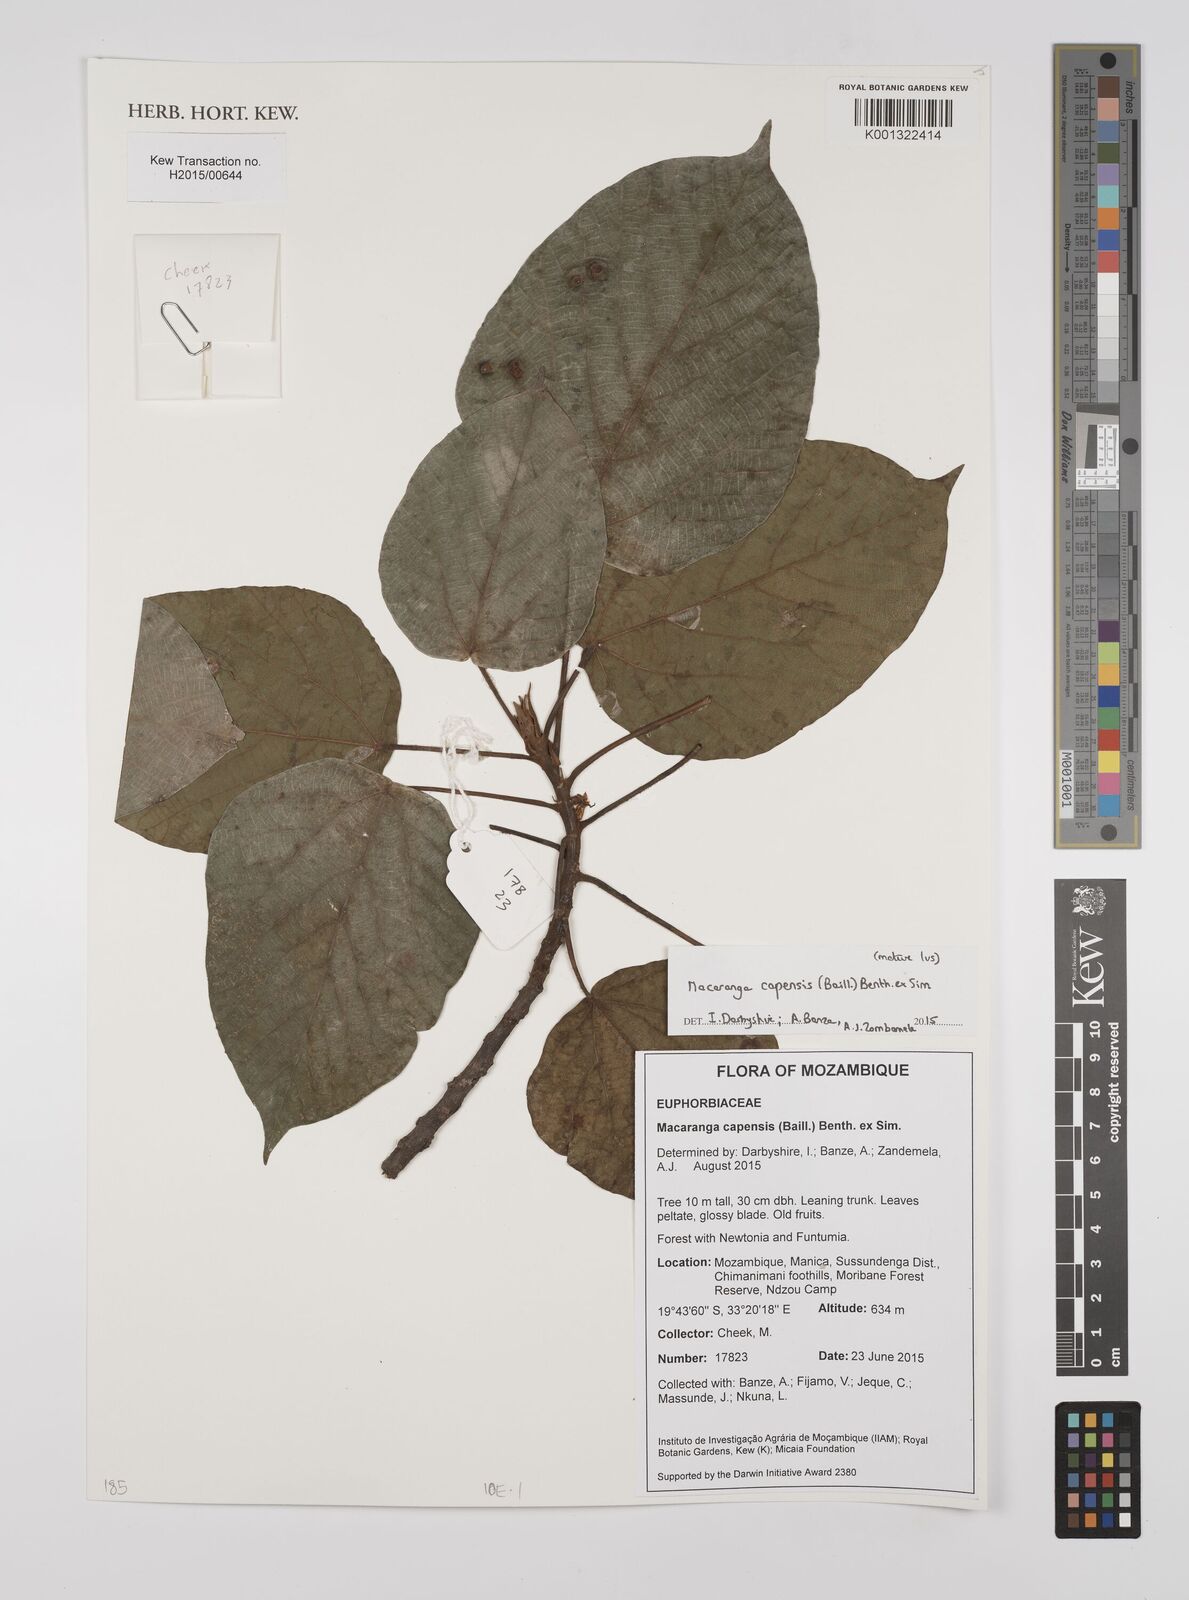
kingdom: Plantae
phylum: Tracheophyta
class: Magnoliopsida
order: Malpighiales
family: Euphorbiaceae
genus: Macaranga
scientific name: Macaranga capensis
